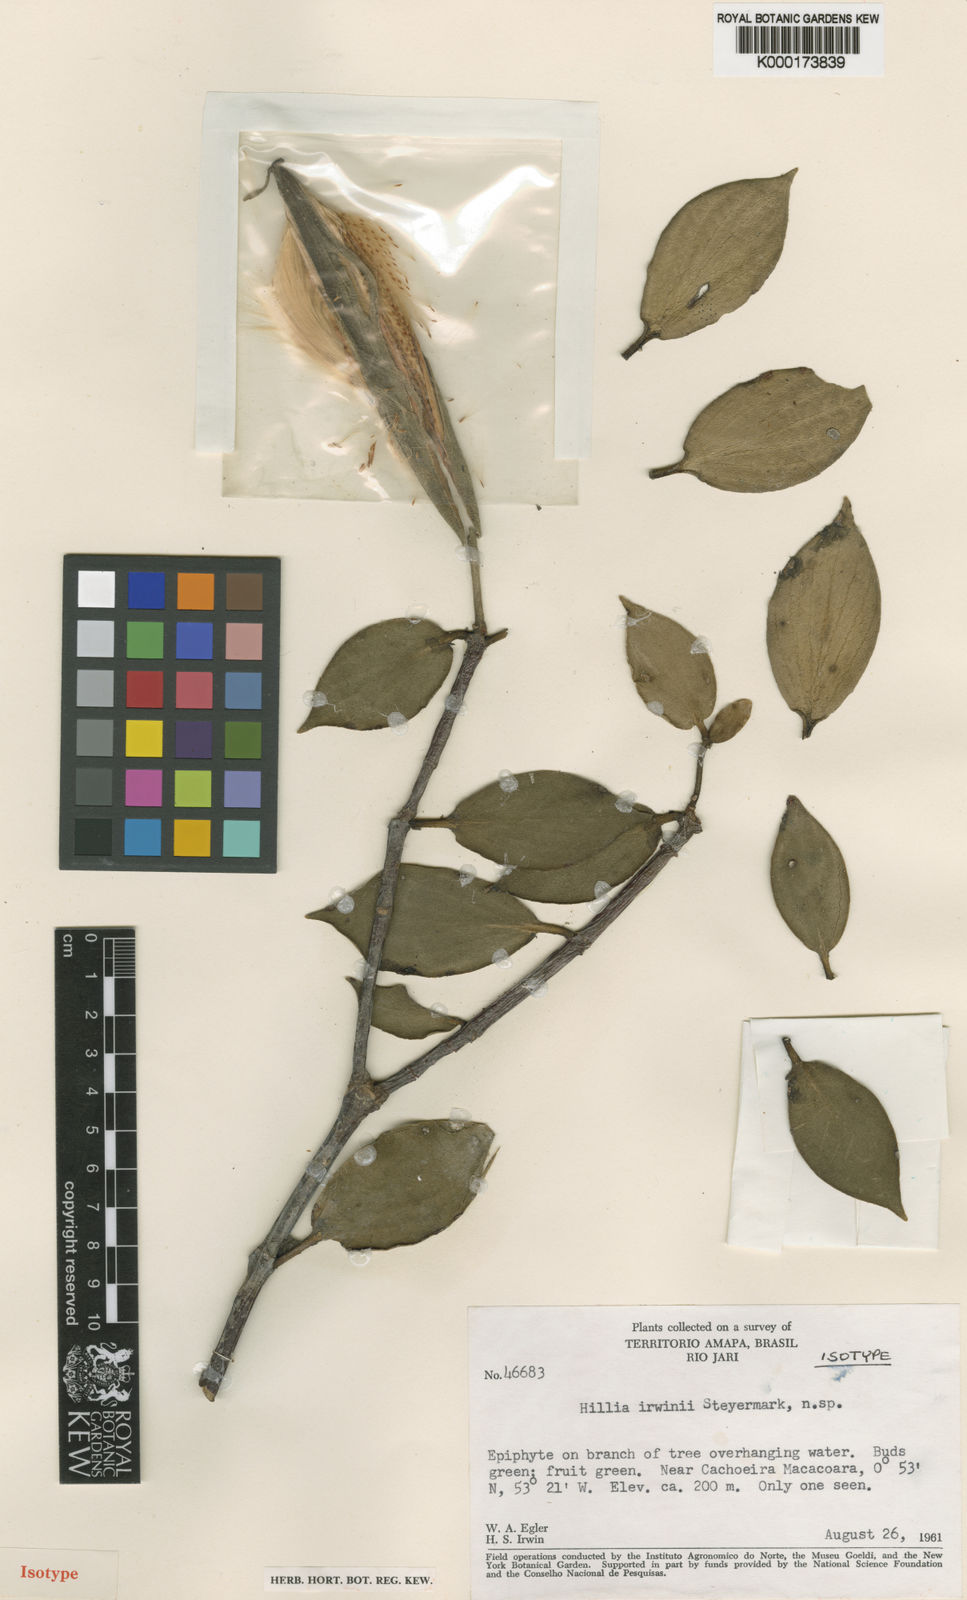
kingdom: Plantae
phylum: Tracheophyta
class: Magnoliopsida
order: Gentianales
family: Rubiaceae
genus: Hillia
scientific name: Hillia ulei
